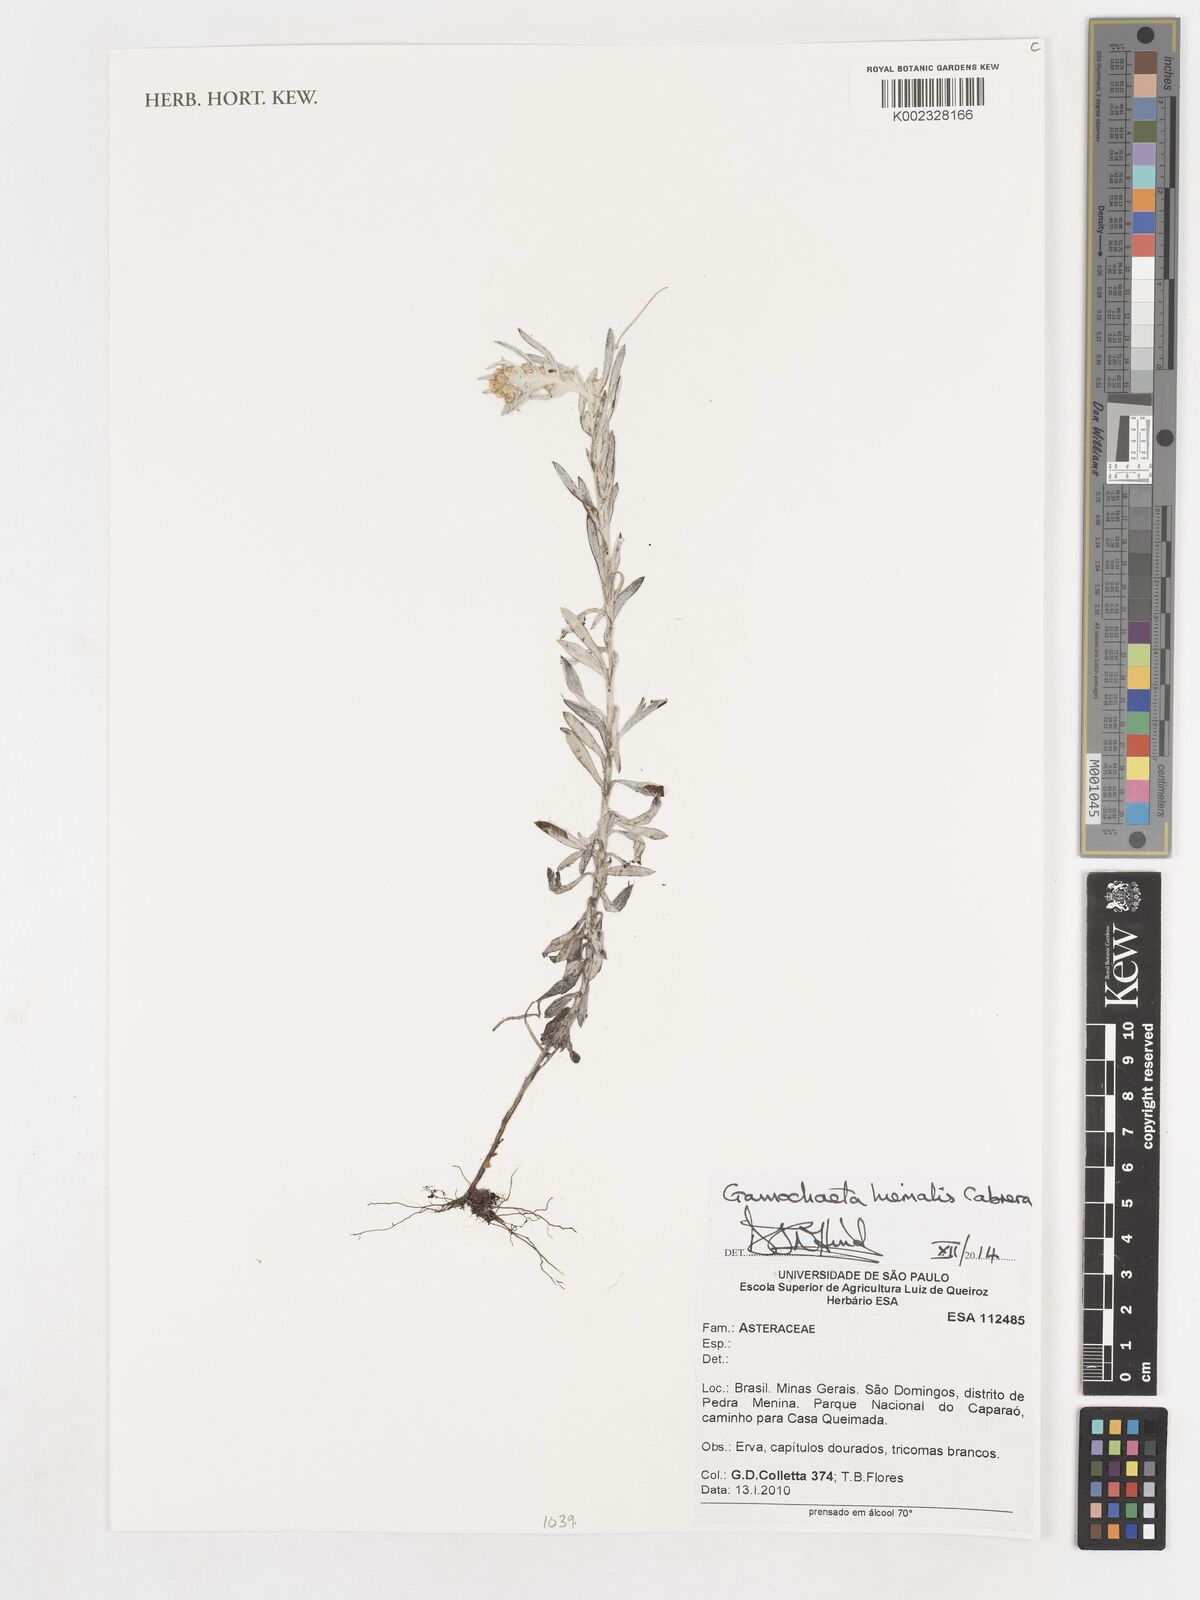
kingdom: Plantae
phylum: Tracheophyta
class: Magnoliopsida
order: Asterales
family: Asteraceae
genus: Gamochaeta
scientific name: Gamochaeta brasiliana
